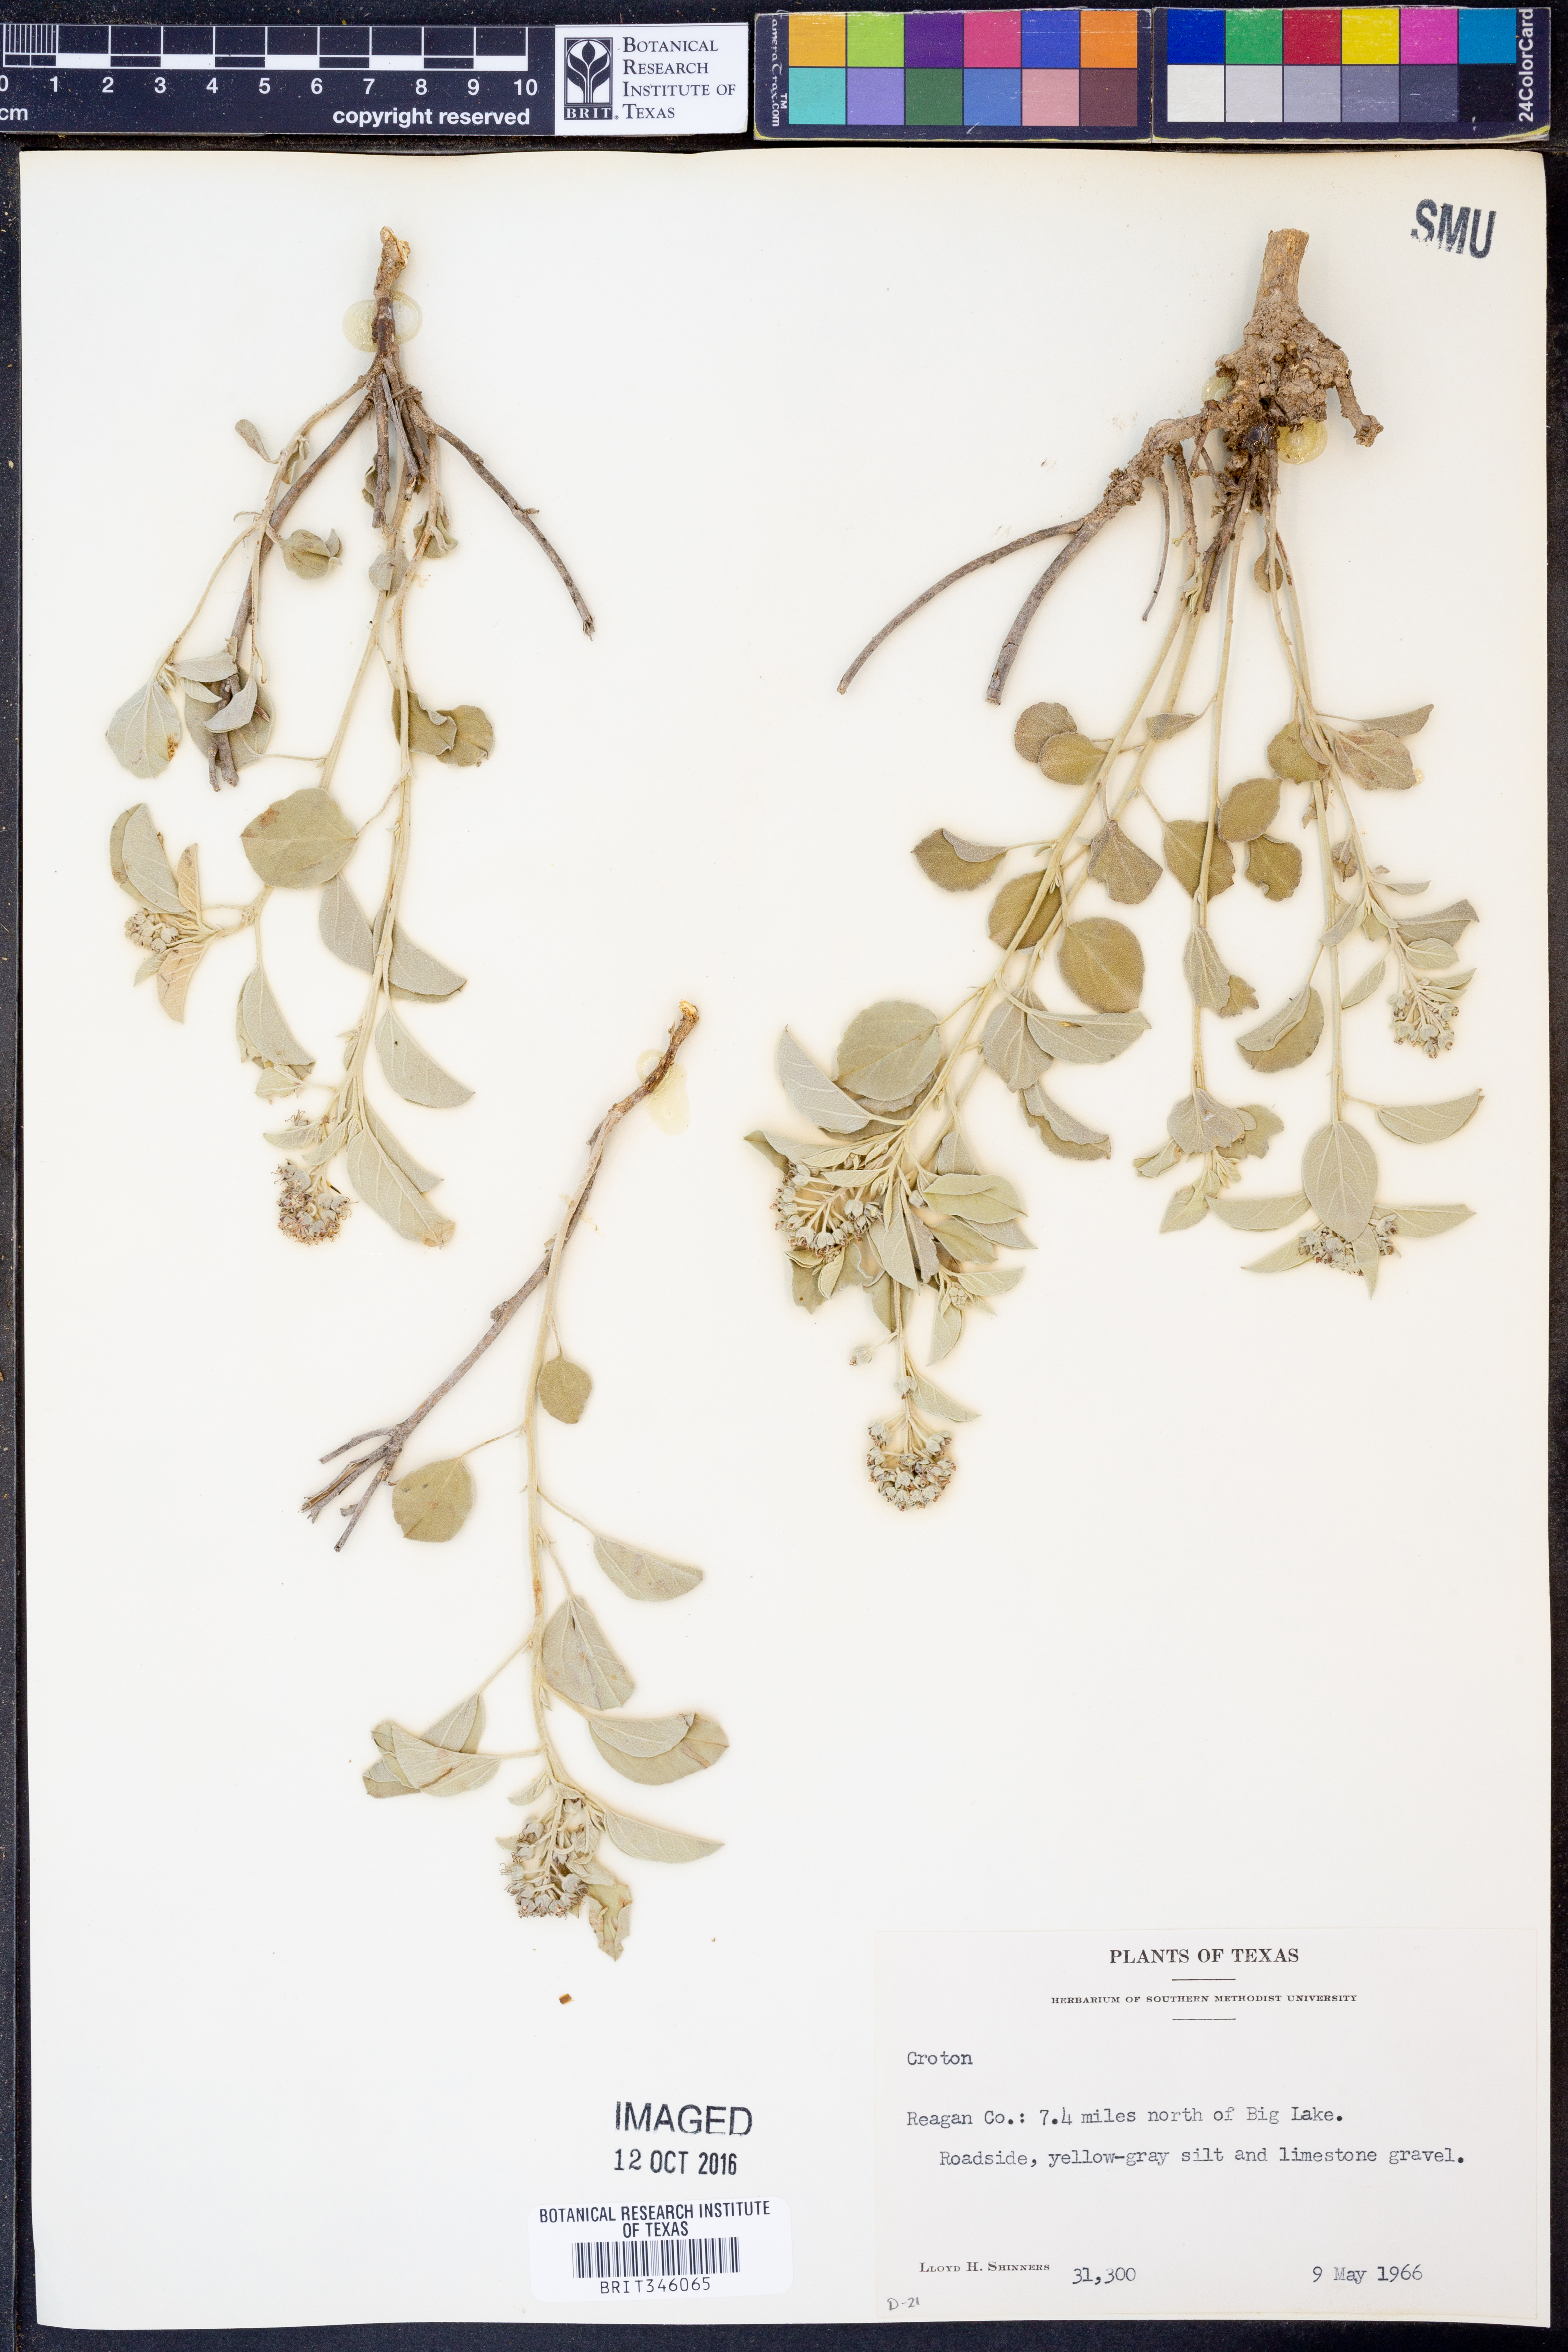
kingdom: Plantae
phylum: Tracheophyta
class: Magnoliopsida
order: Malpighiales
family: Euphorbiaceae
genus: Croton
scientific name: Croton
